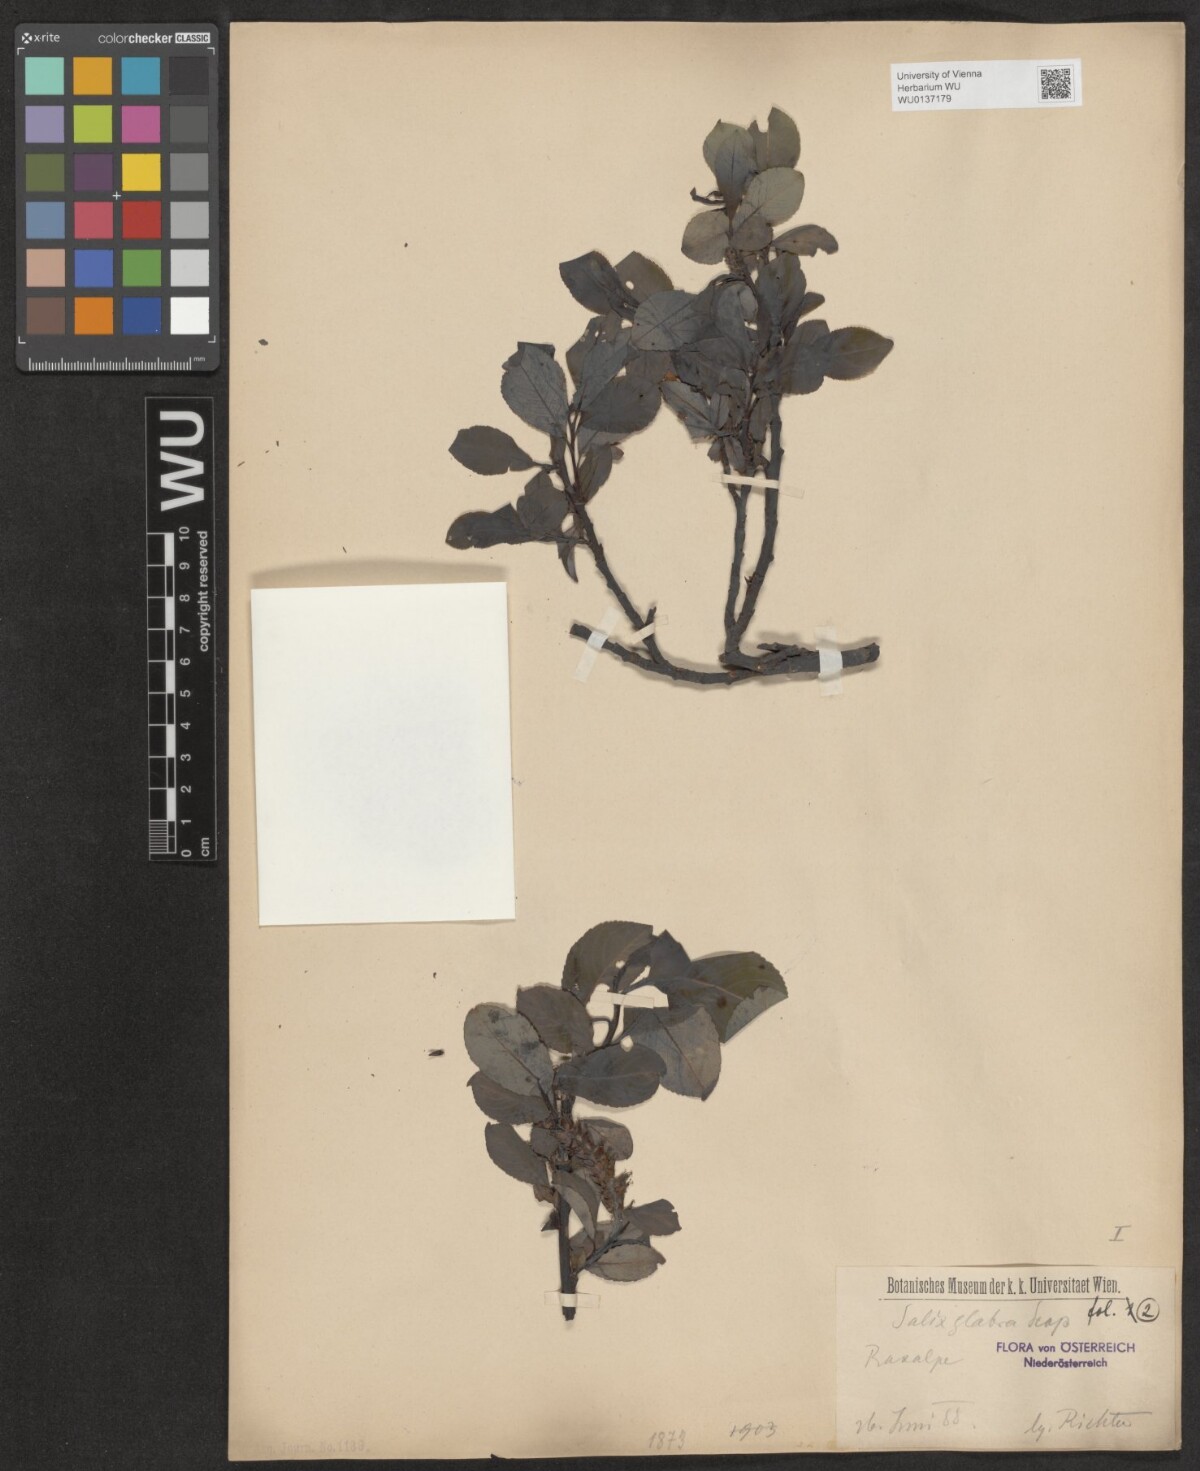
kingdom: Plantae
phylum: Tracheophyta
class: Magnoliopsida
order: Malpighiales
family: Salicaceae
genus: Salix
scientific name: Salix glabra
